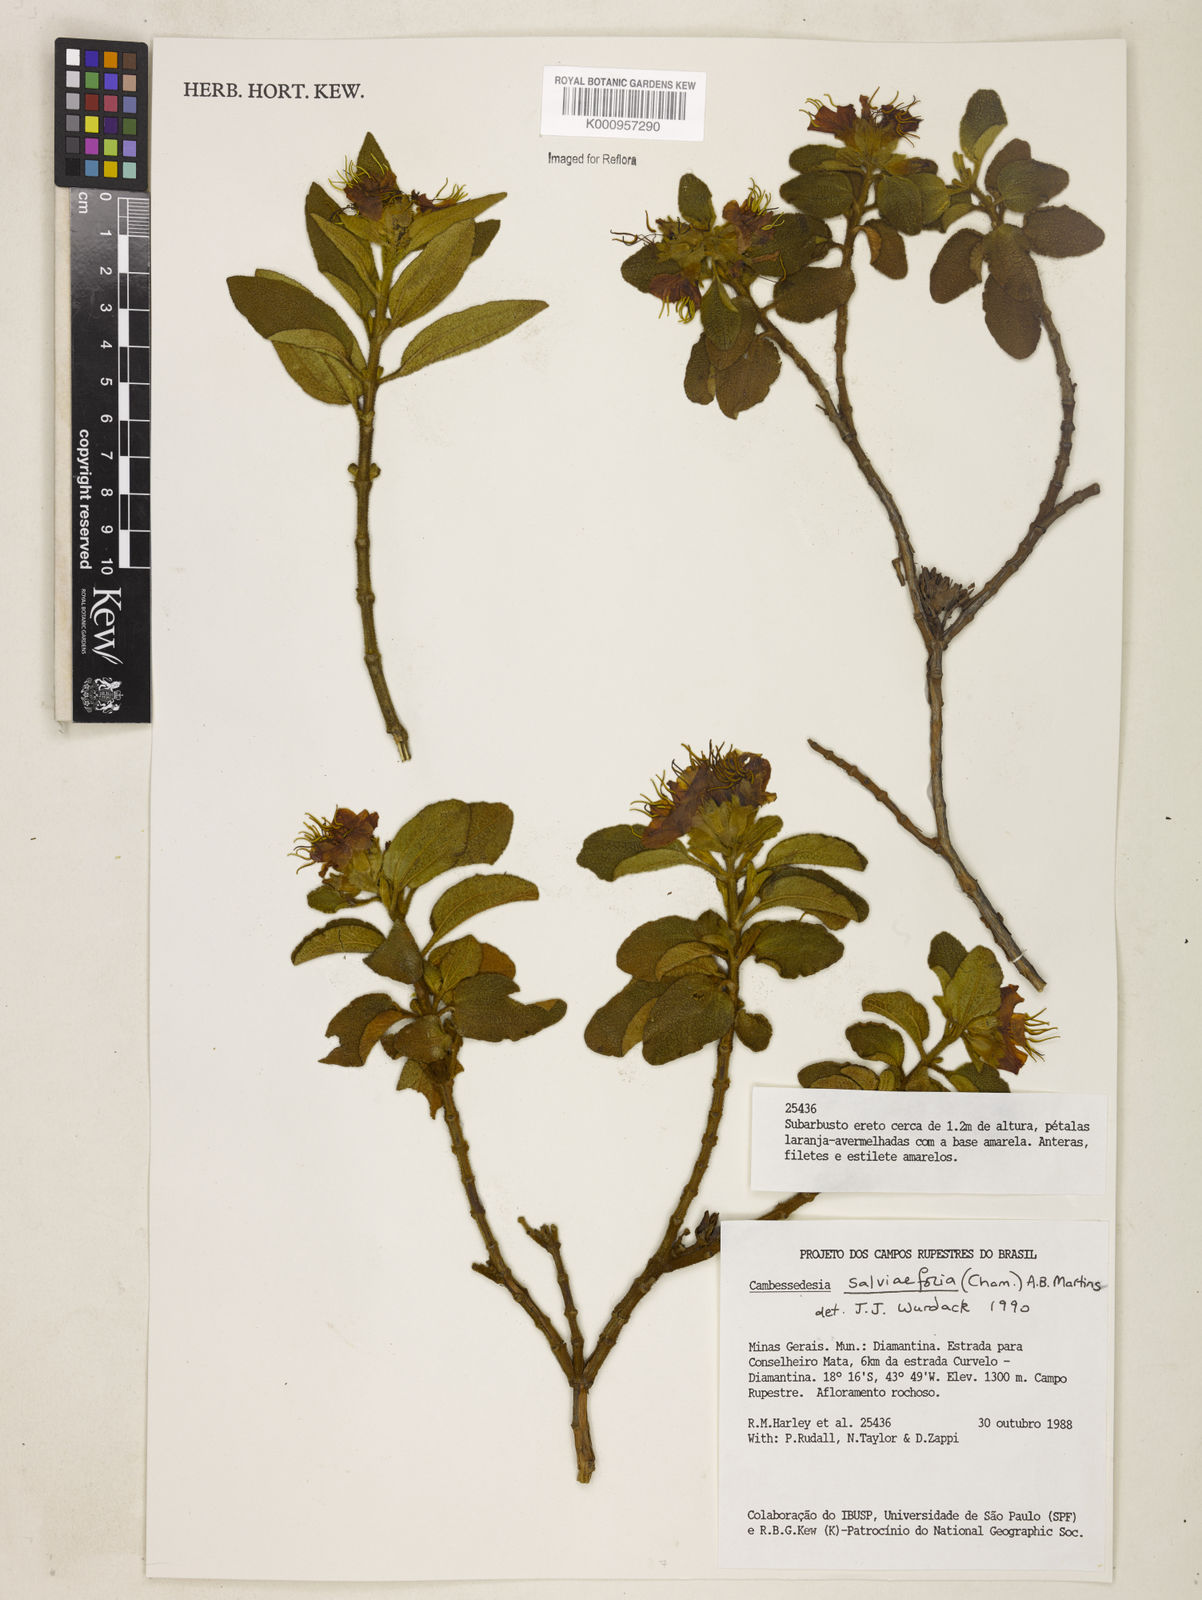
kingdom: Plantae
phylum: Tracheophyta
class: Magnoliopsida
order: Myrtales
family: Melastomataceae
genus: Cambessedesia
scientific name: Cambessedesia
